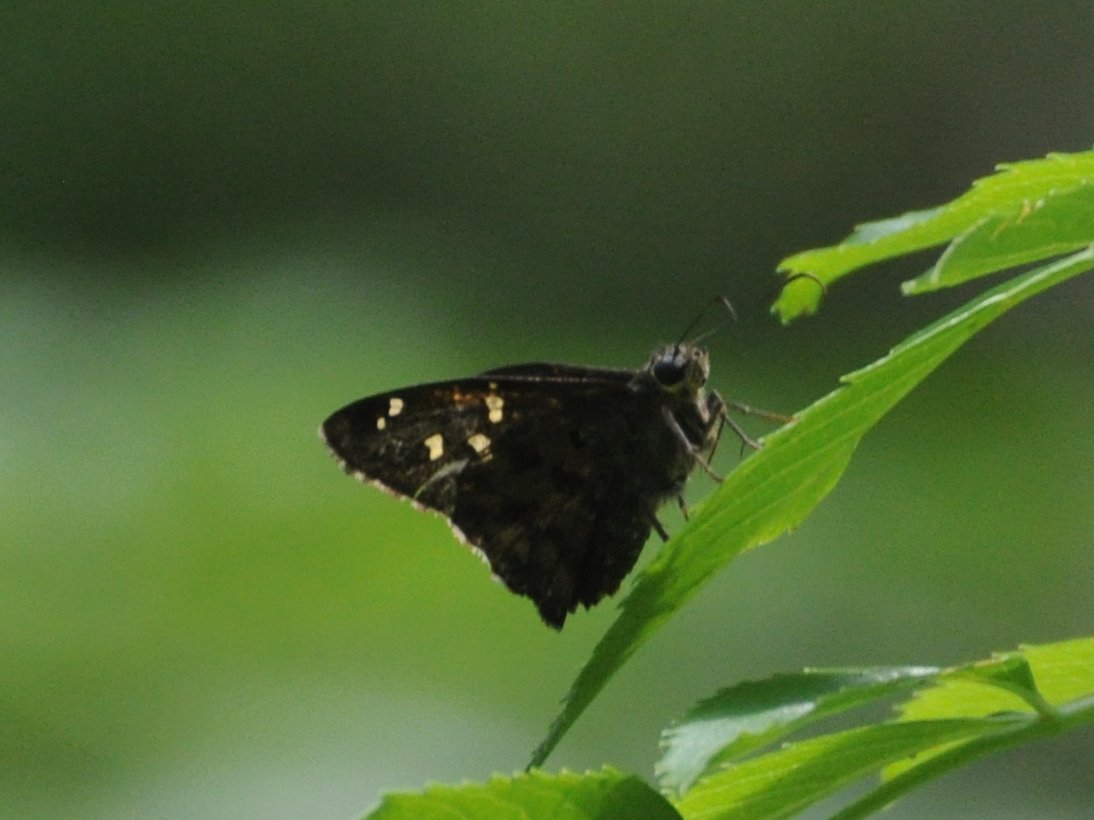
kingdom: Animalia
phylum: Arthropoda
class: Insecta
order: Lepidoptera
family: Hesperiidae
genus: Urbanus
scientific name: Urbanus dorantes
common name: Dorantes Longtail
